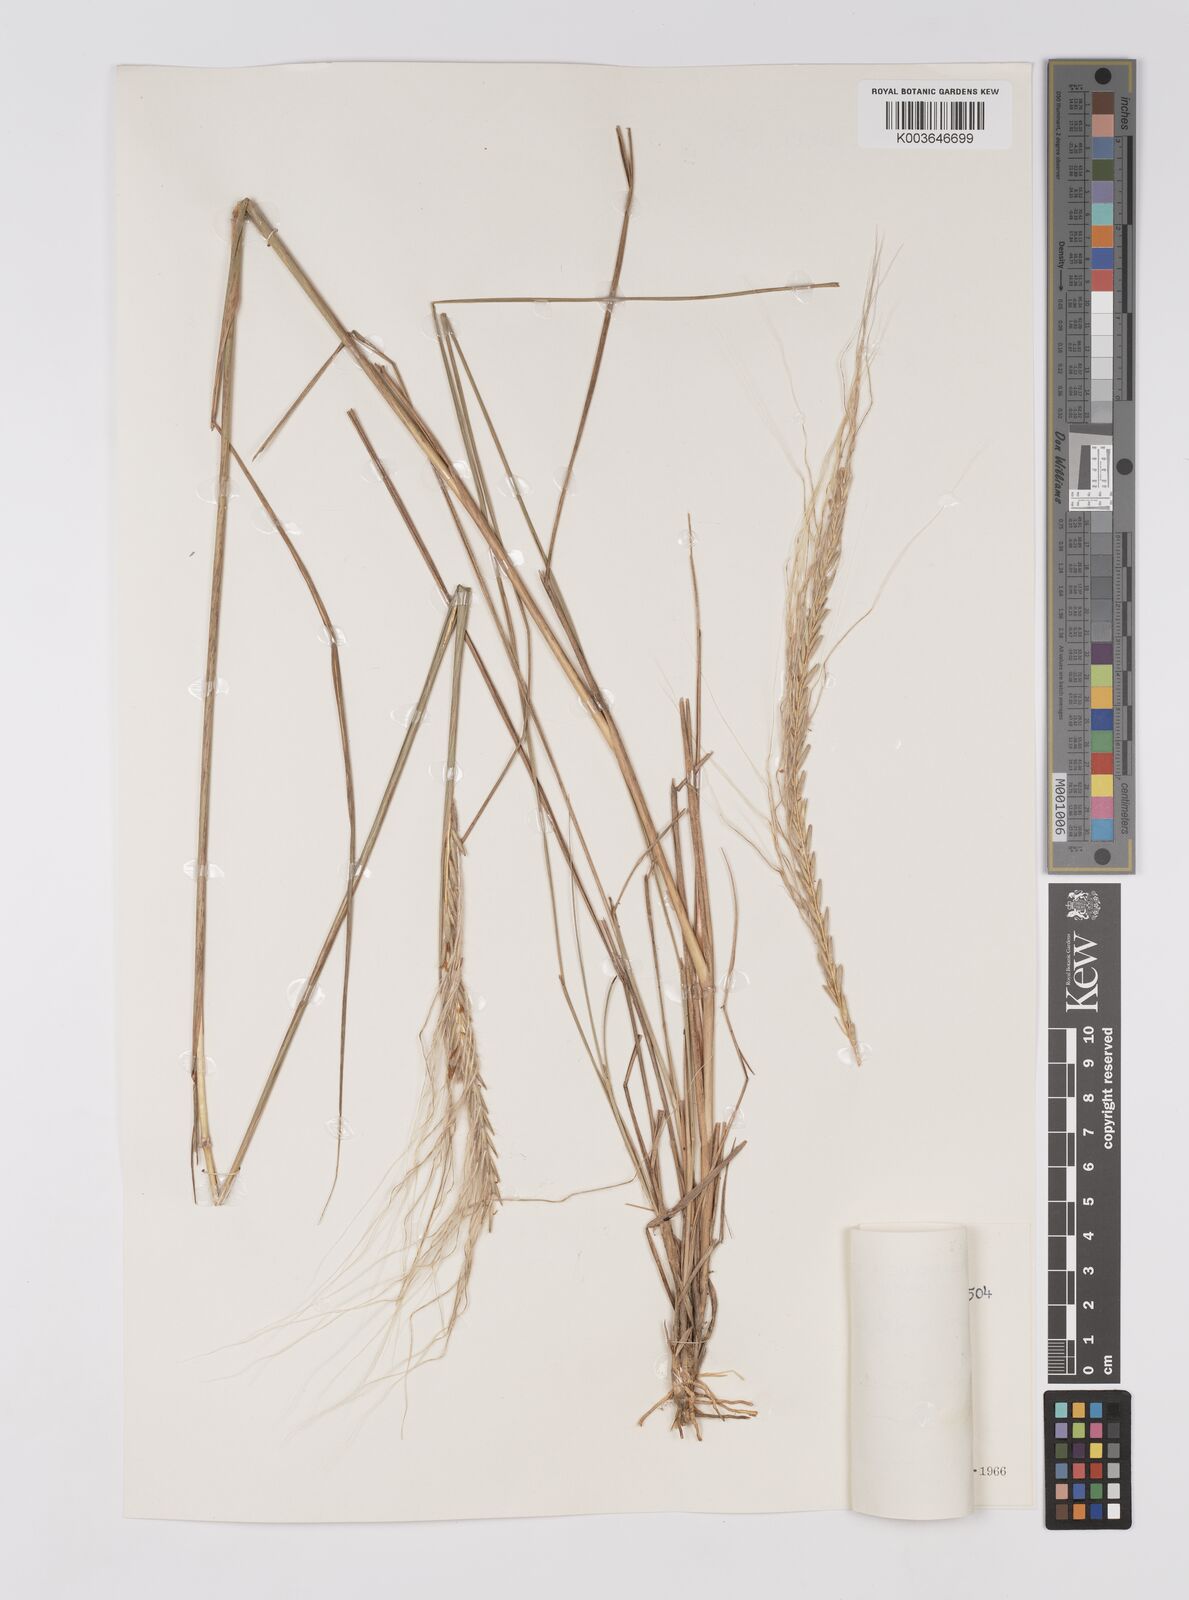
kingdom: Plantae
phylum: Tracheophyta
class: Liliopsida
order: Poales
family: Poaceae
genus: Trachypogon
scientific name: Trachypogon spicatus
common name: Crinkle-awn
